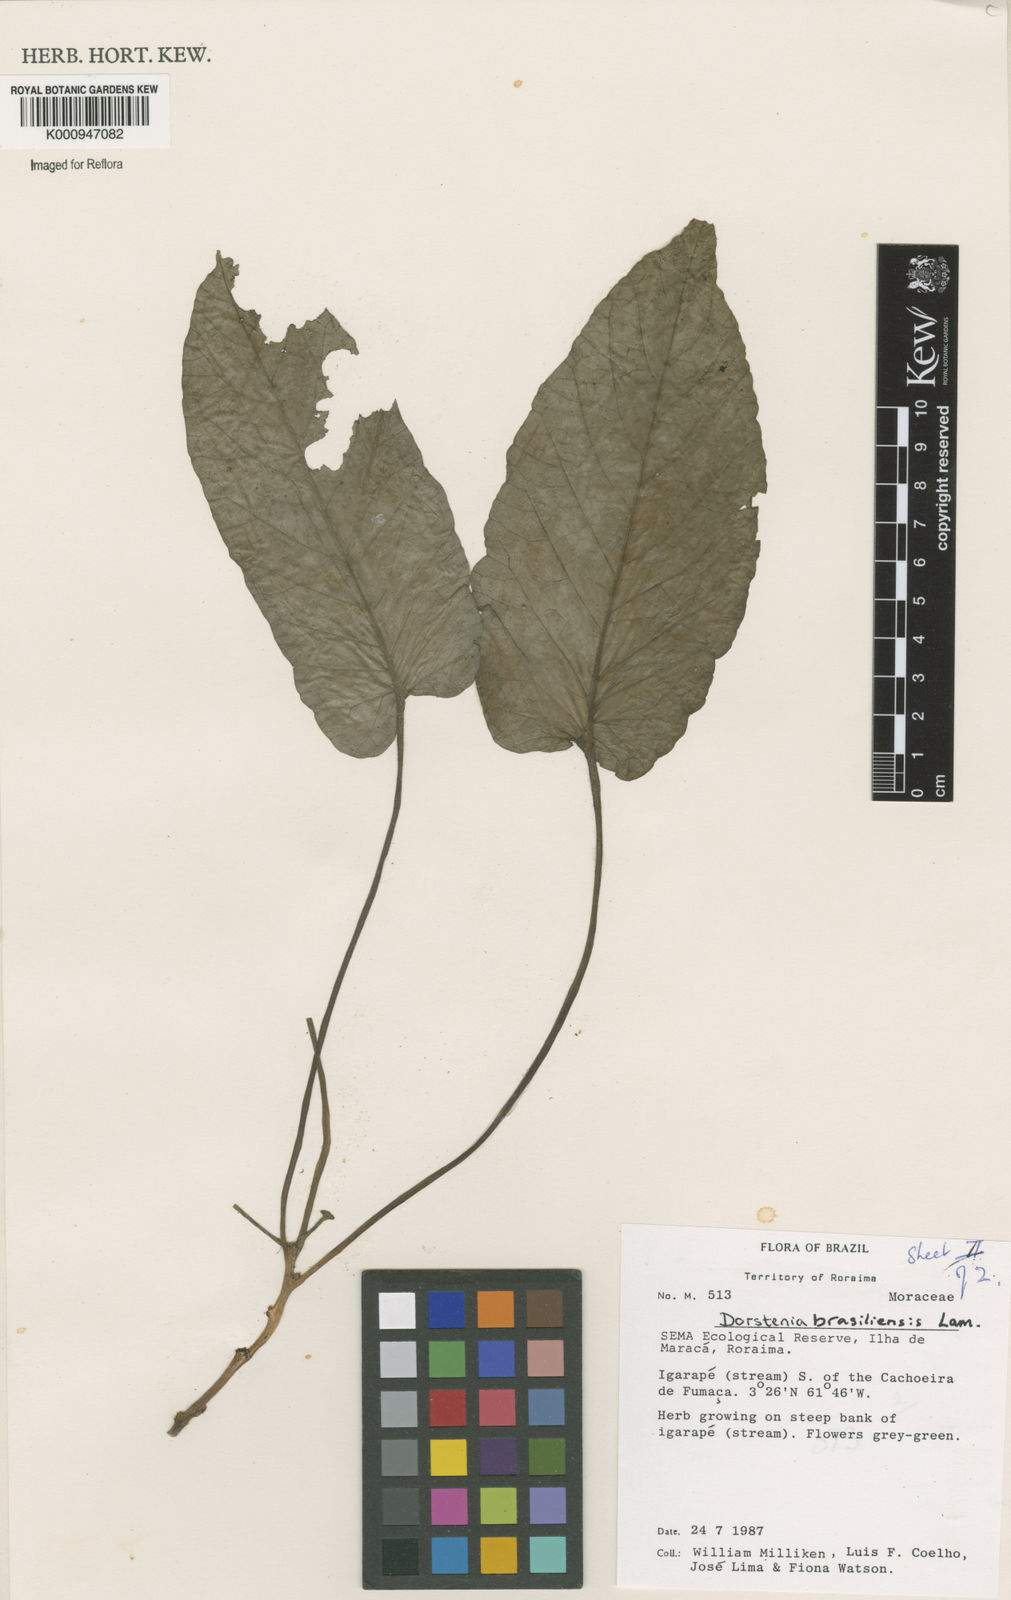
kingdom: Plantae
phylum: Tracheophyta
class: Magnoliopsida
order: Rosales
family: Moraceae
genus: Dorstenia
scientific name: Dorstenia brasiliensis
